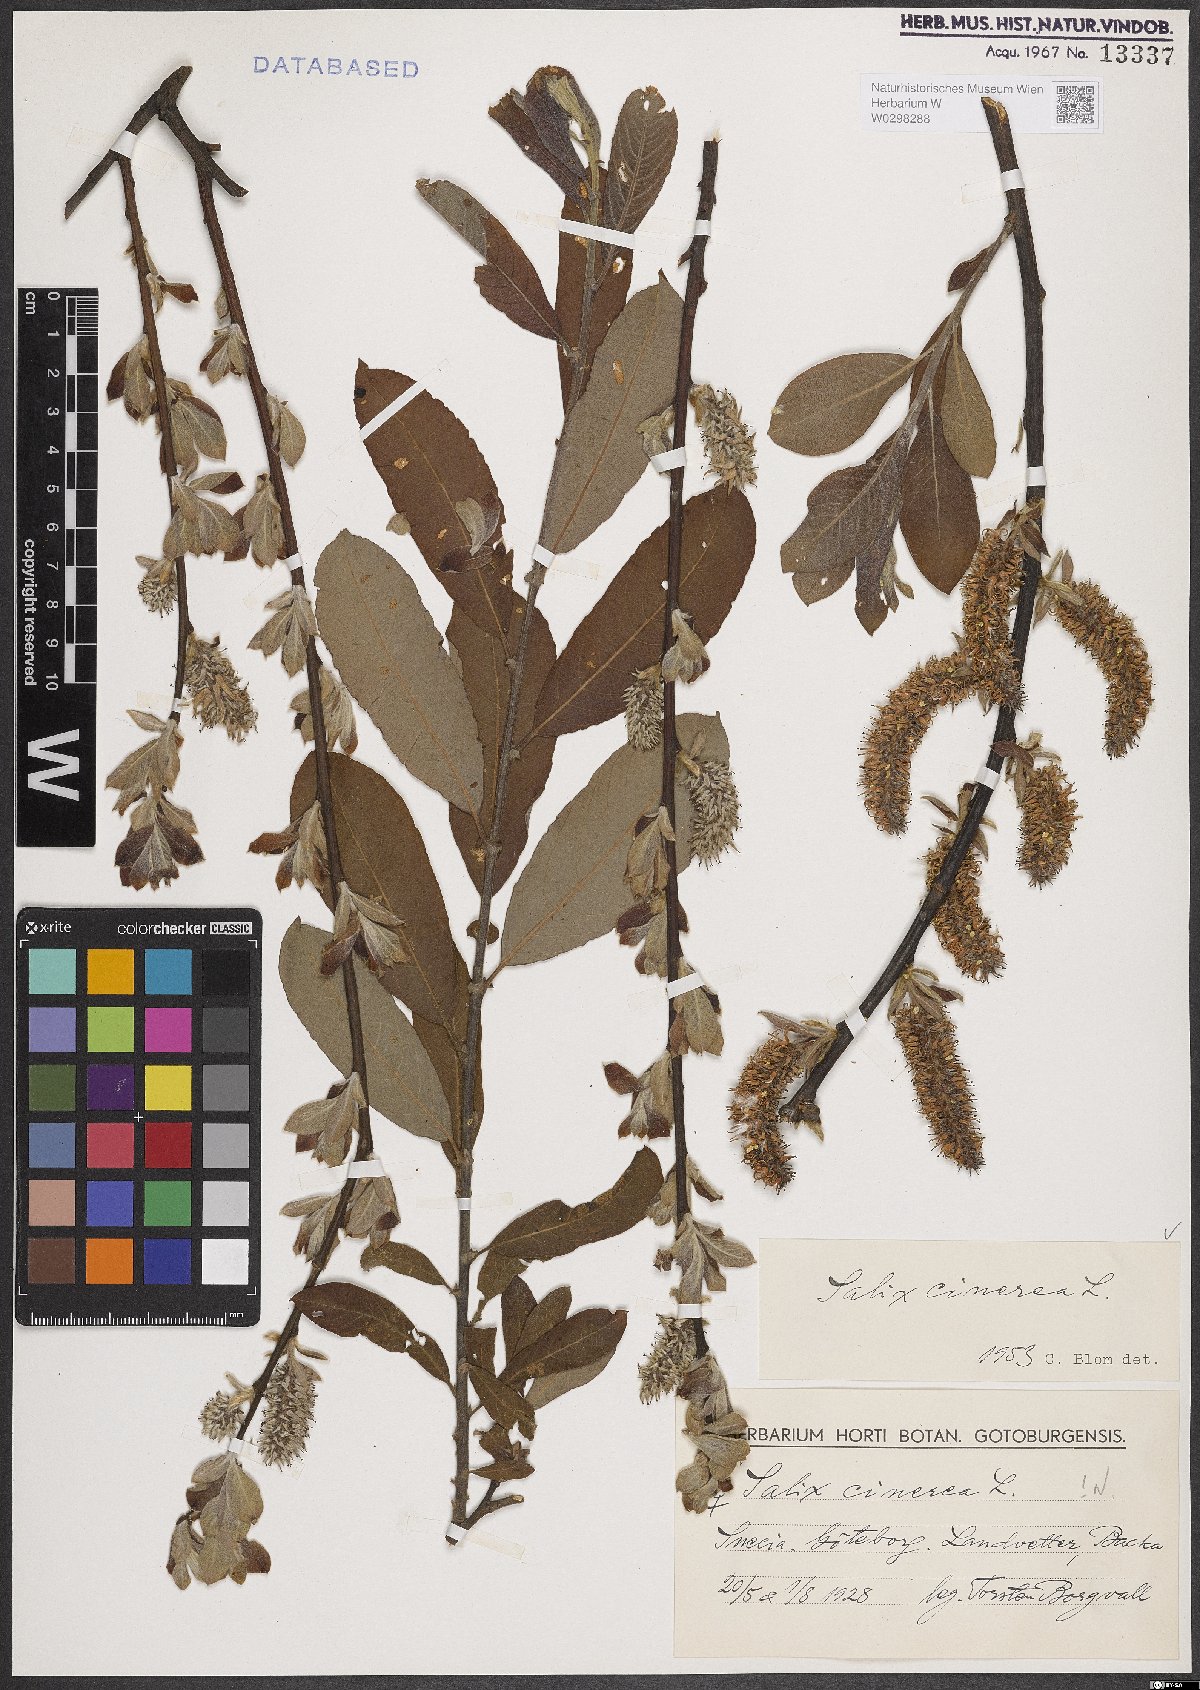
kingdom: Plantae
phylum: Tracheophyta
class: Magnoliopsida
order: Malpighiales
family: Salicaceae
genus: Salix
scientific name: Salix cinerea
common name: Common sallow
